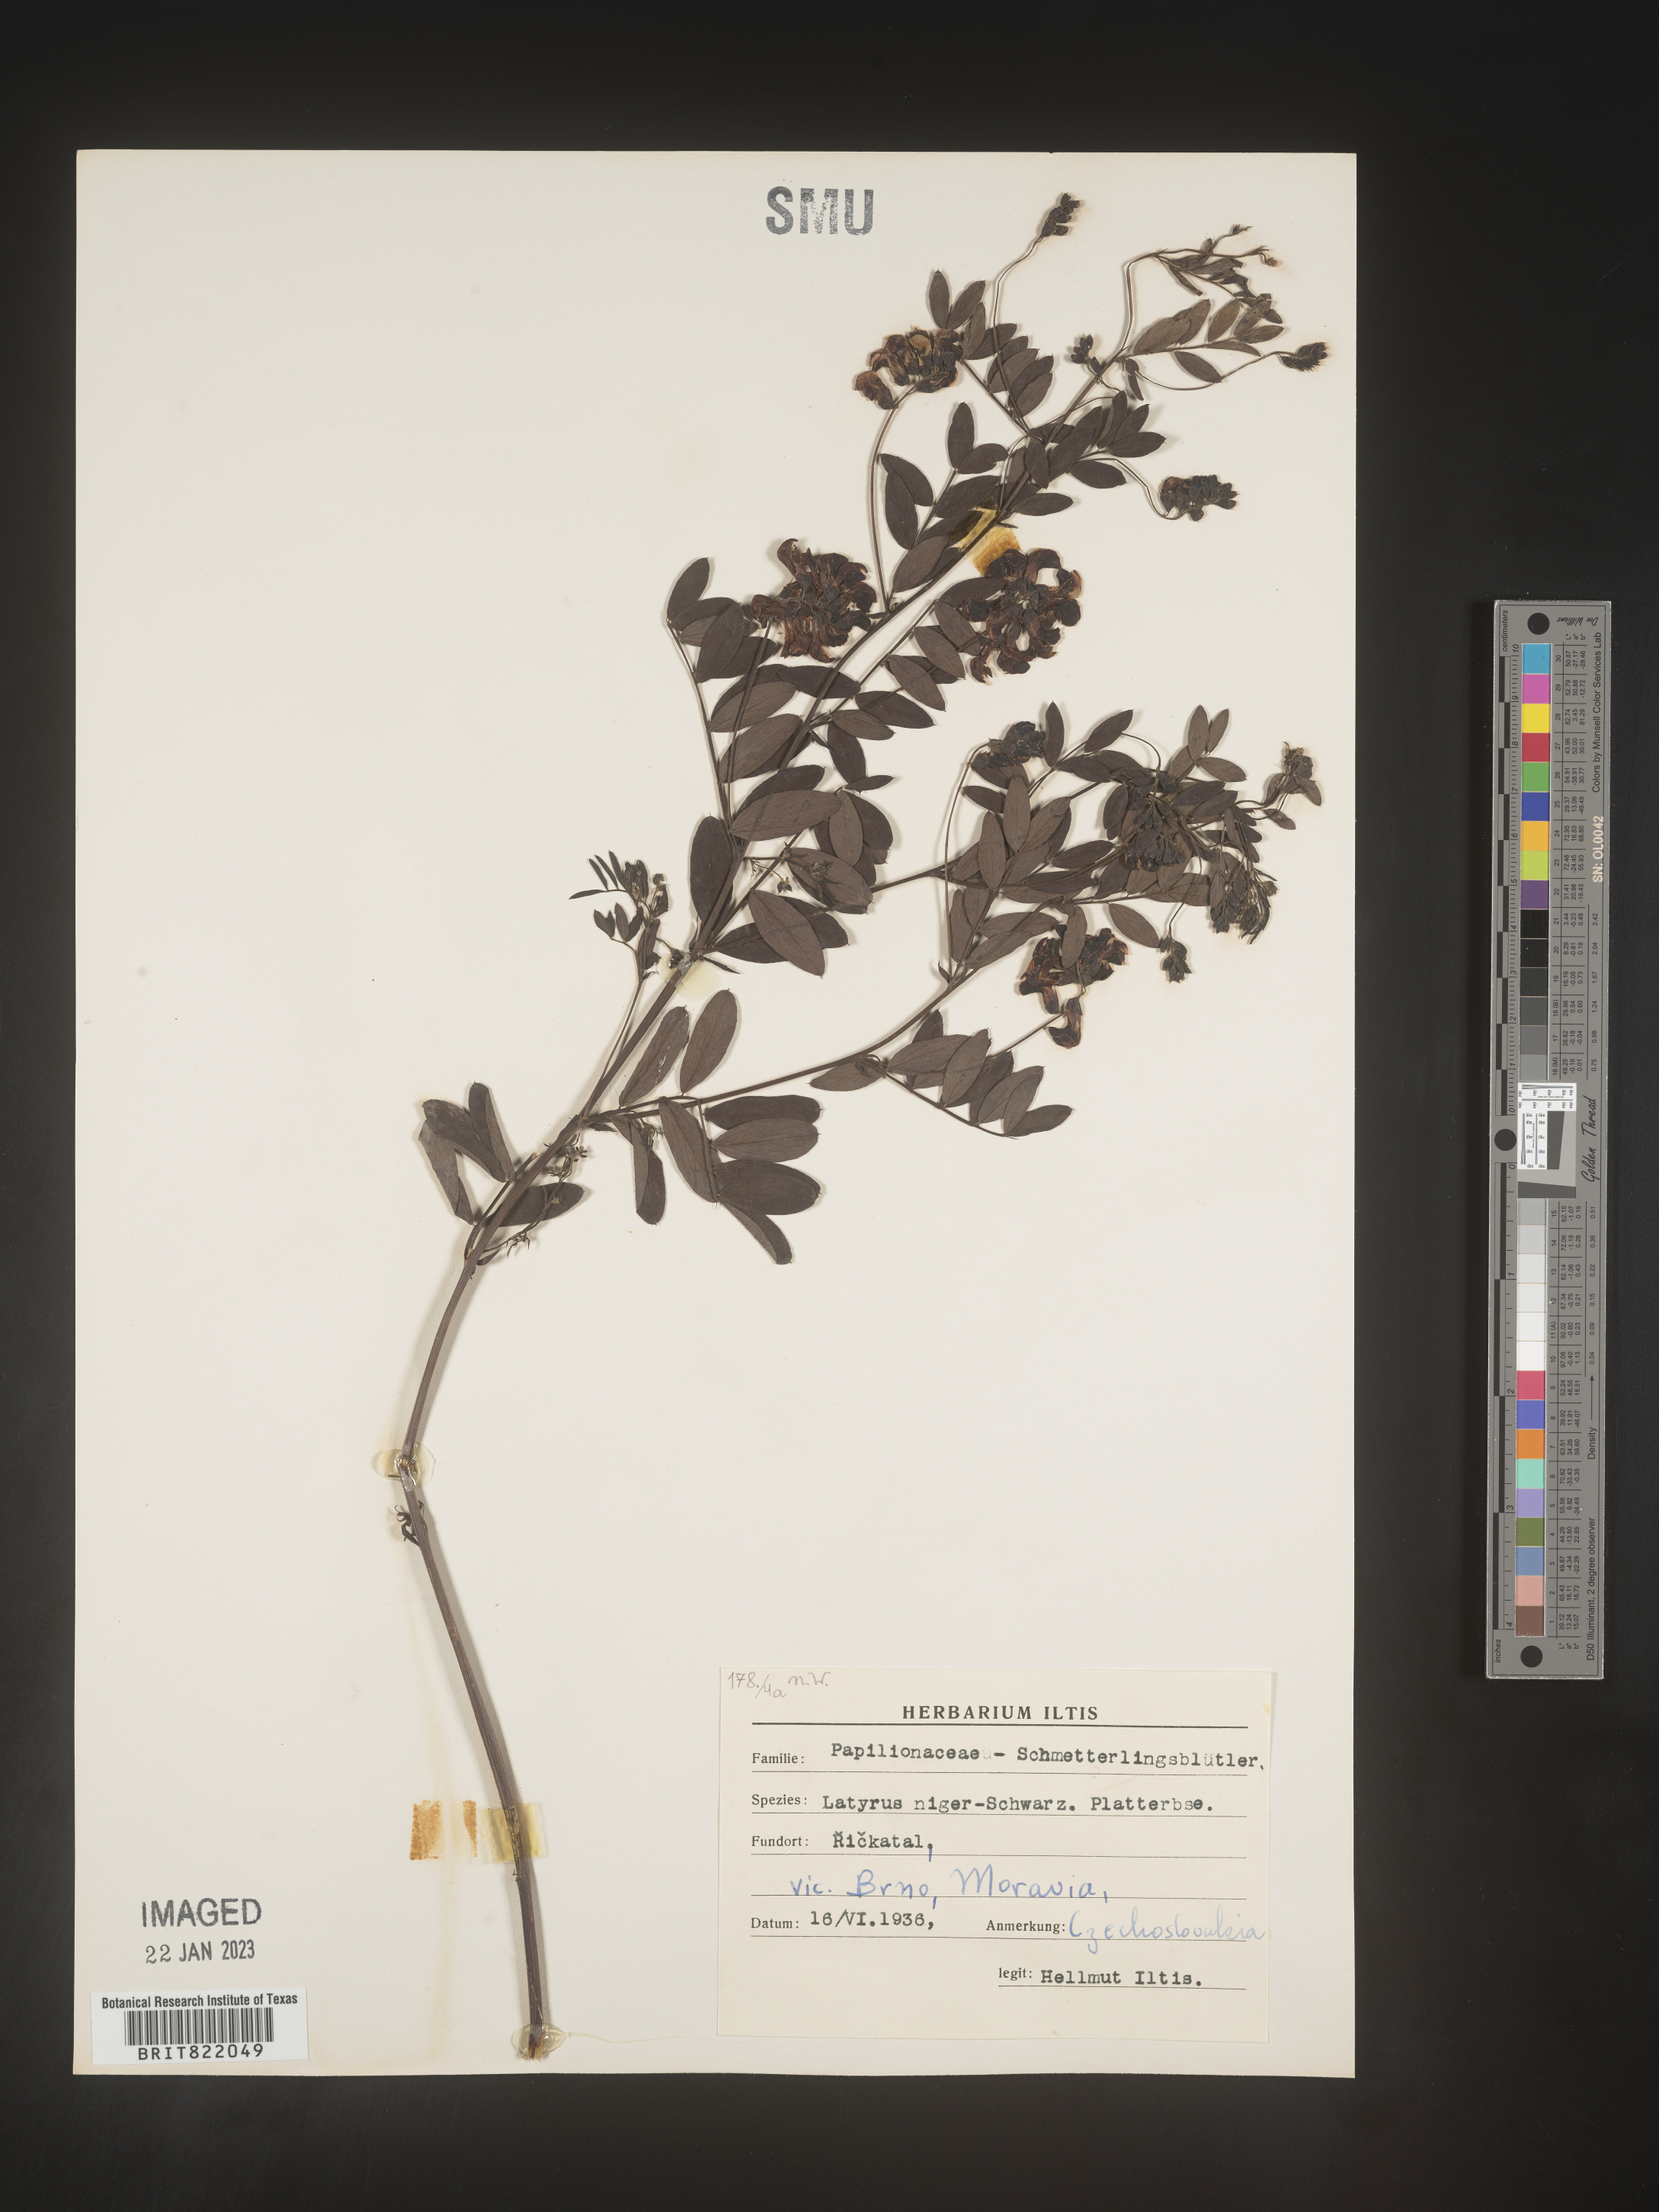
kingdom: Plantae
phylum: Tracheophyta
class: Magnoliopsida
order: Fabales
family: Fabaceae
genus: Lathyrus
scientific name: Lathyrus
